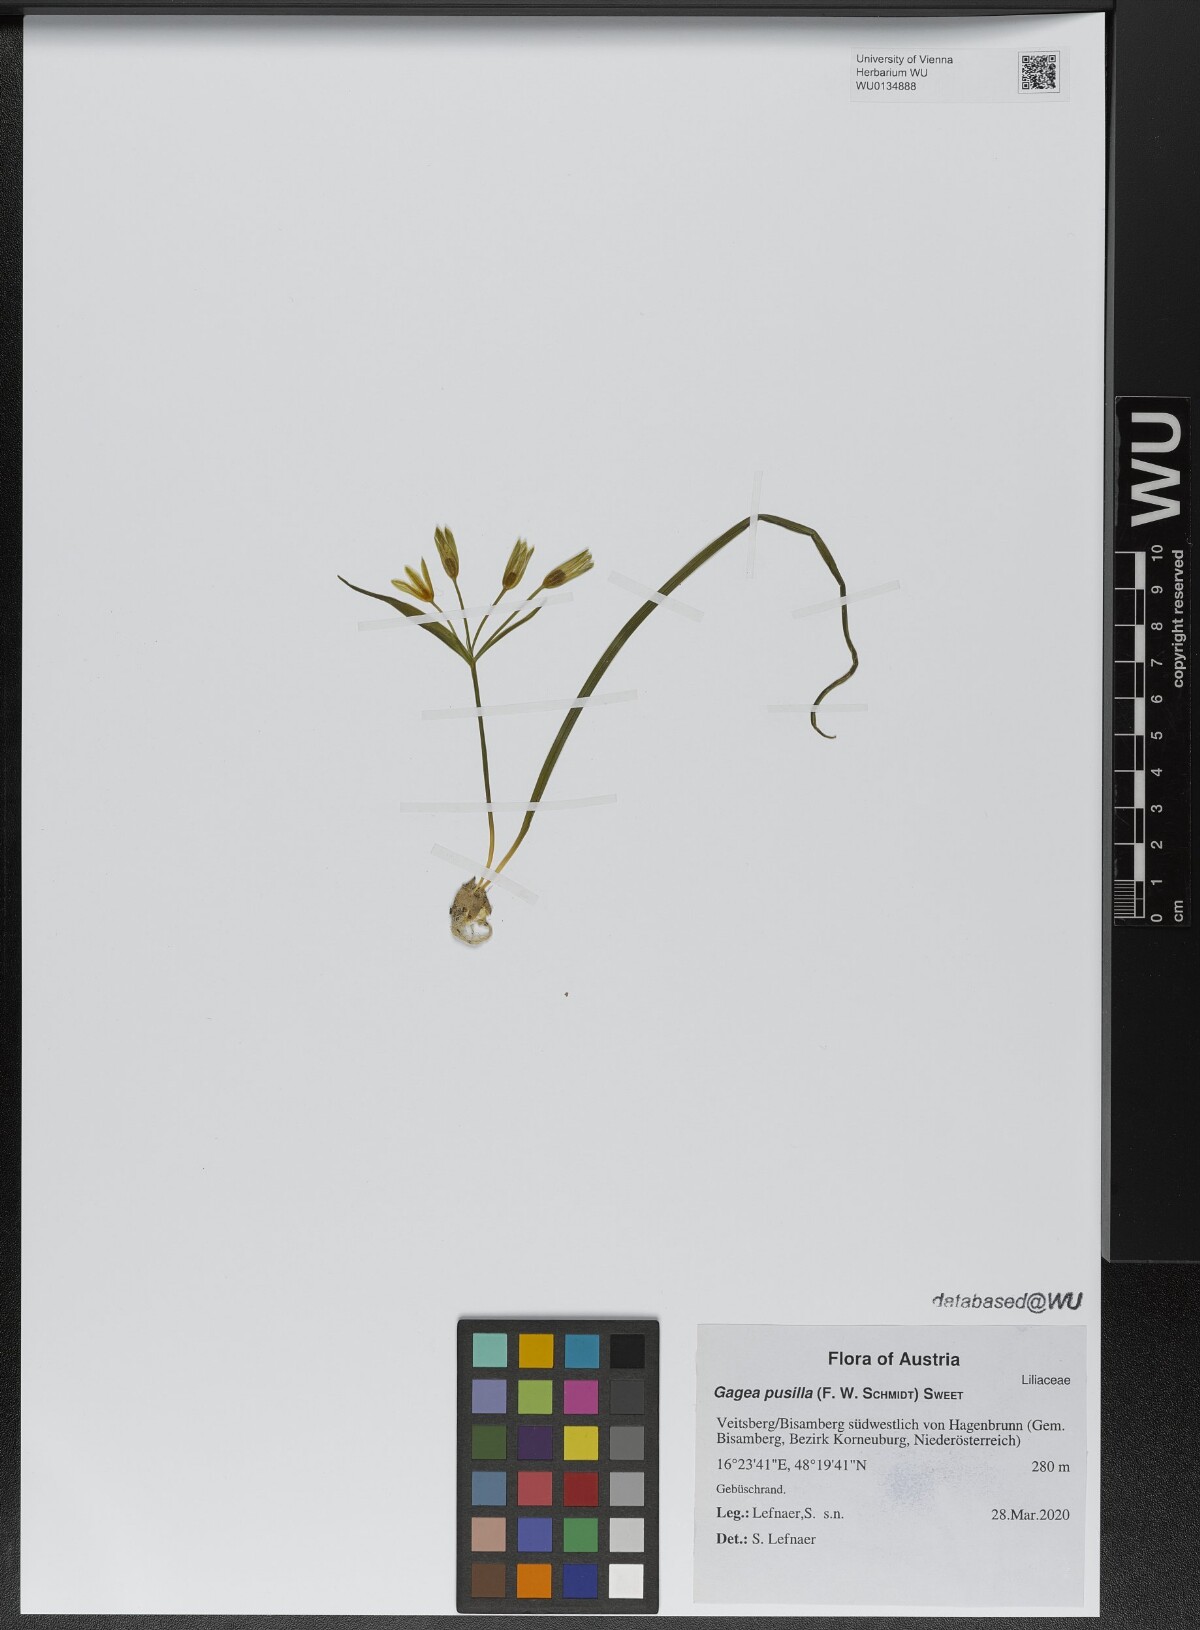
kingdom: Plantae
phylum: Tracheophyta
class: Liliopsida
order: Liliales
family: Liliaceae
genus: Gagea
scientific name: Gagea pusilla
